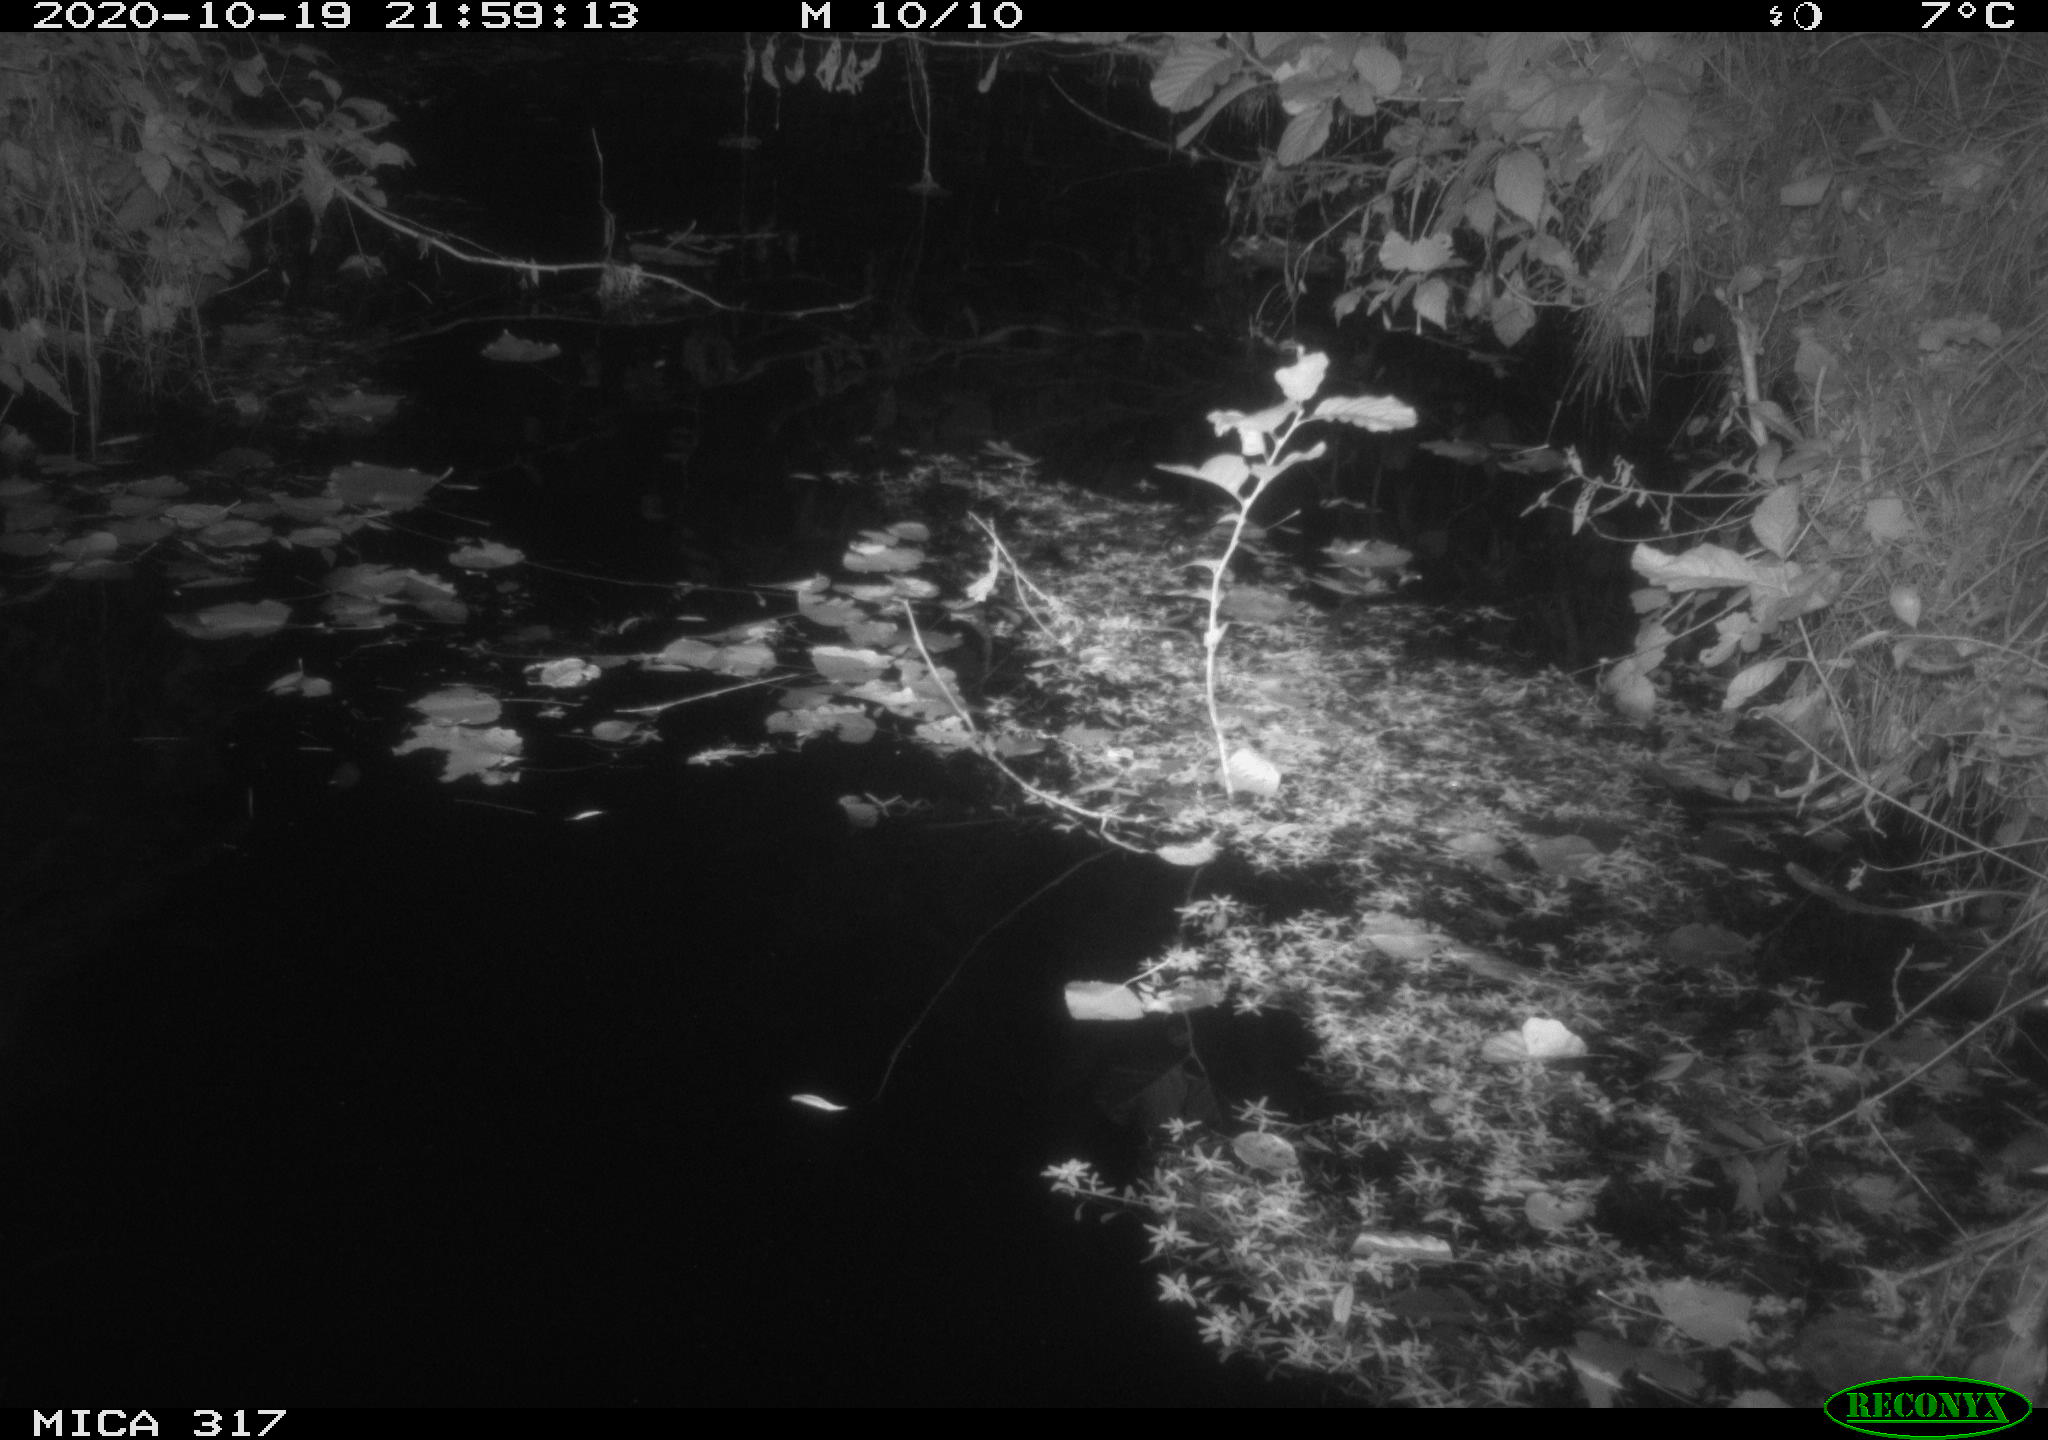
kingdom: Animalia
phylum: Chordata
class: Mammalia
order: Rodentia
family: Muridae
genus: Rattus
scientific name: Rattus norvegicus
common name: Brown rat
